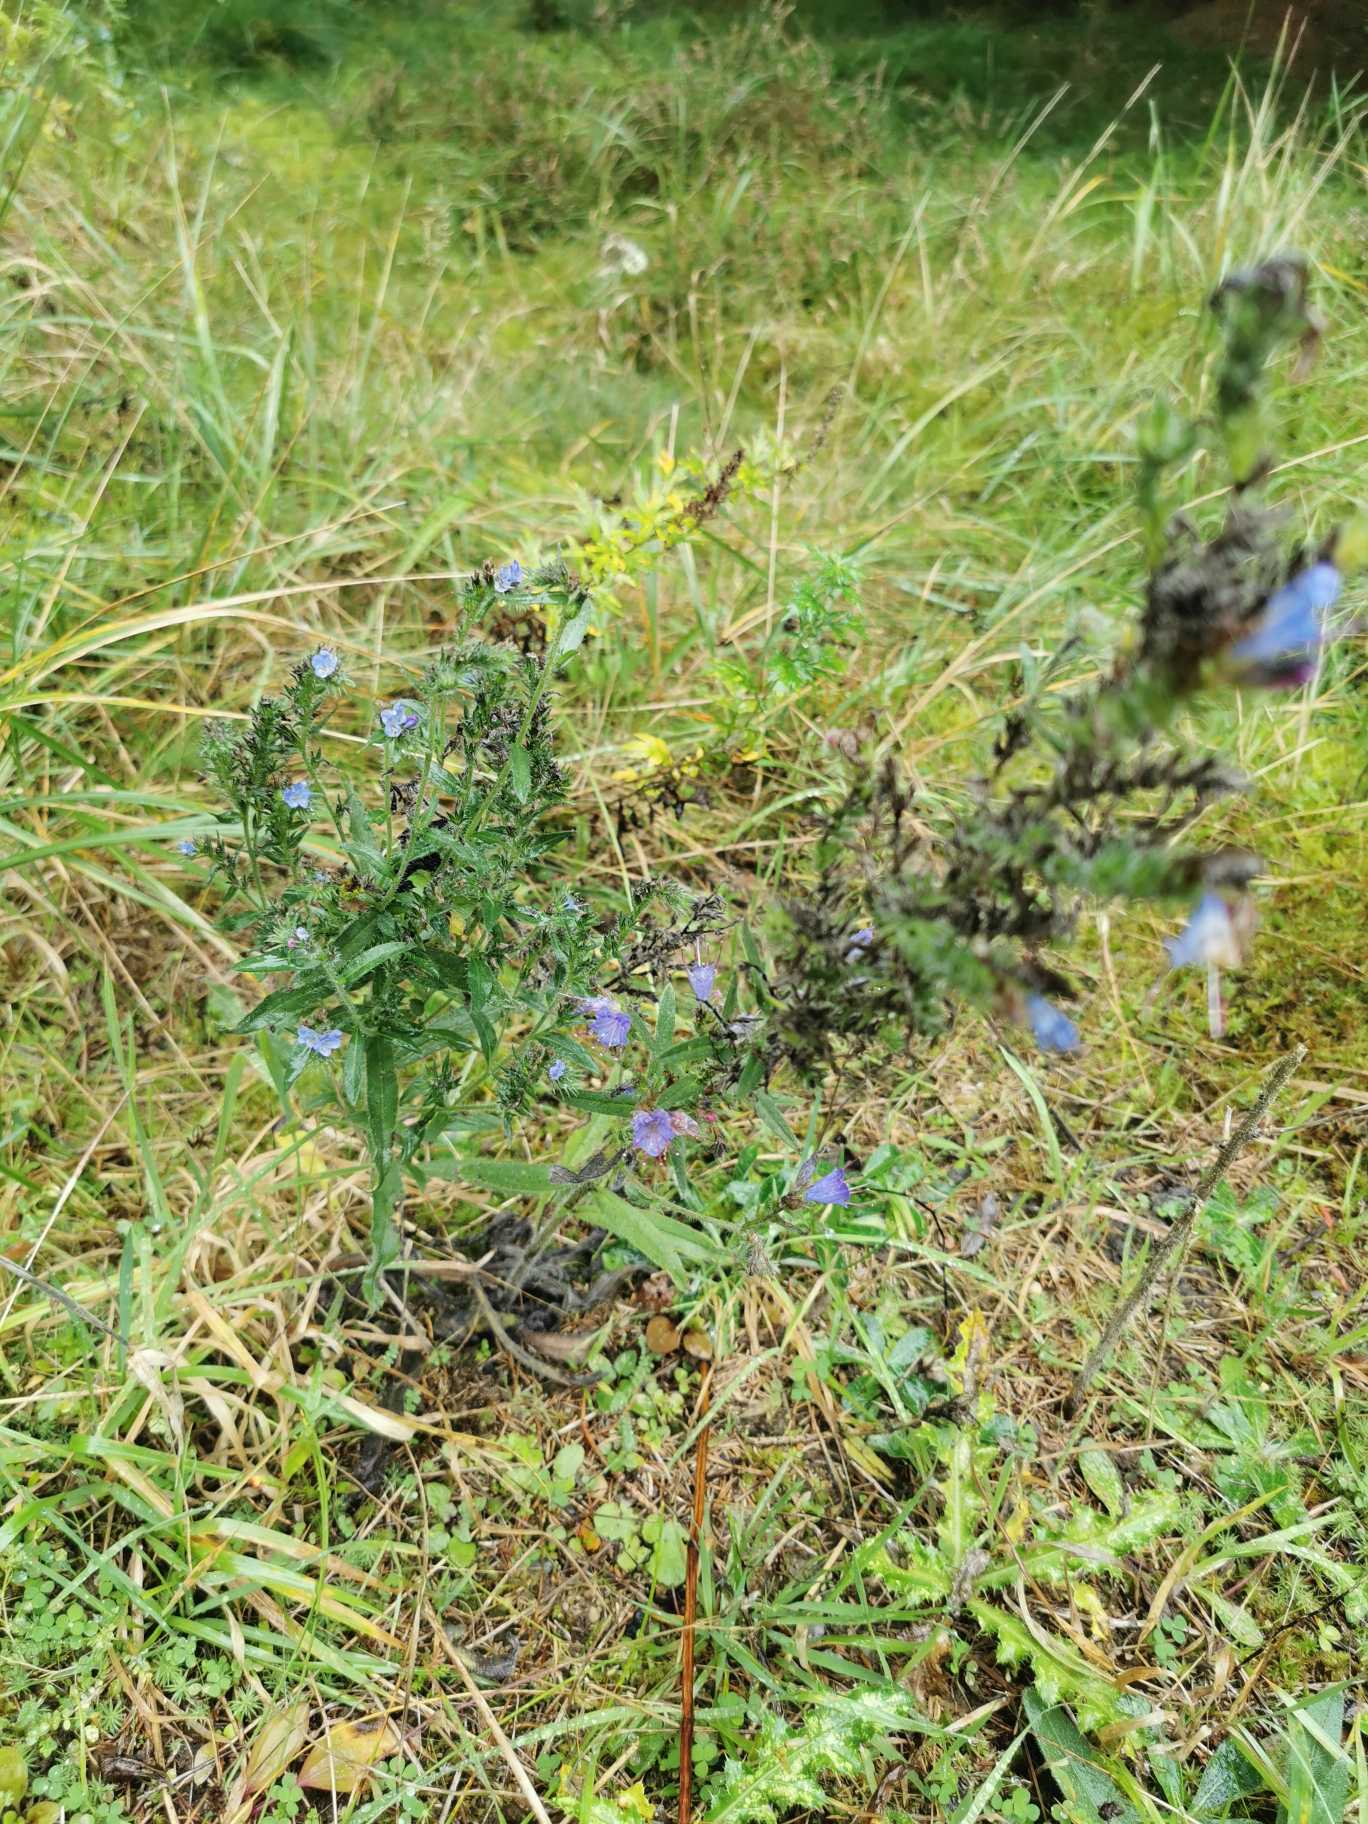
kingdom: Plantae
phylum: Tracheophyta
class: Magnoliopsida
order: Boraginales
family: Boraginaceae
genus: Echium
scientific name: Echium vulgare
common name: Slangehoved
